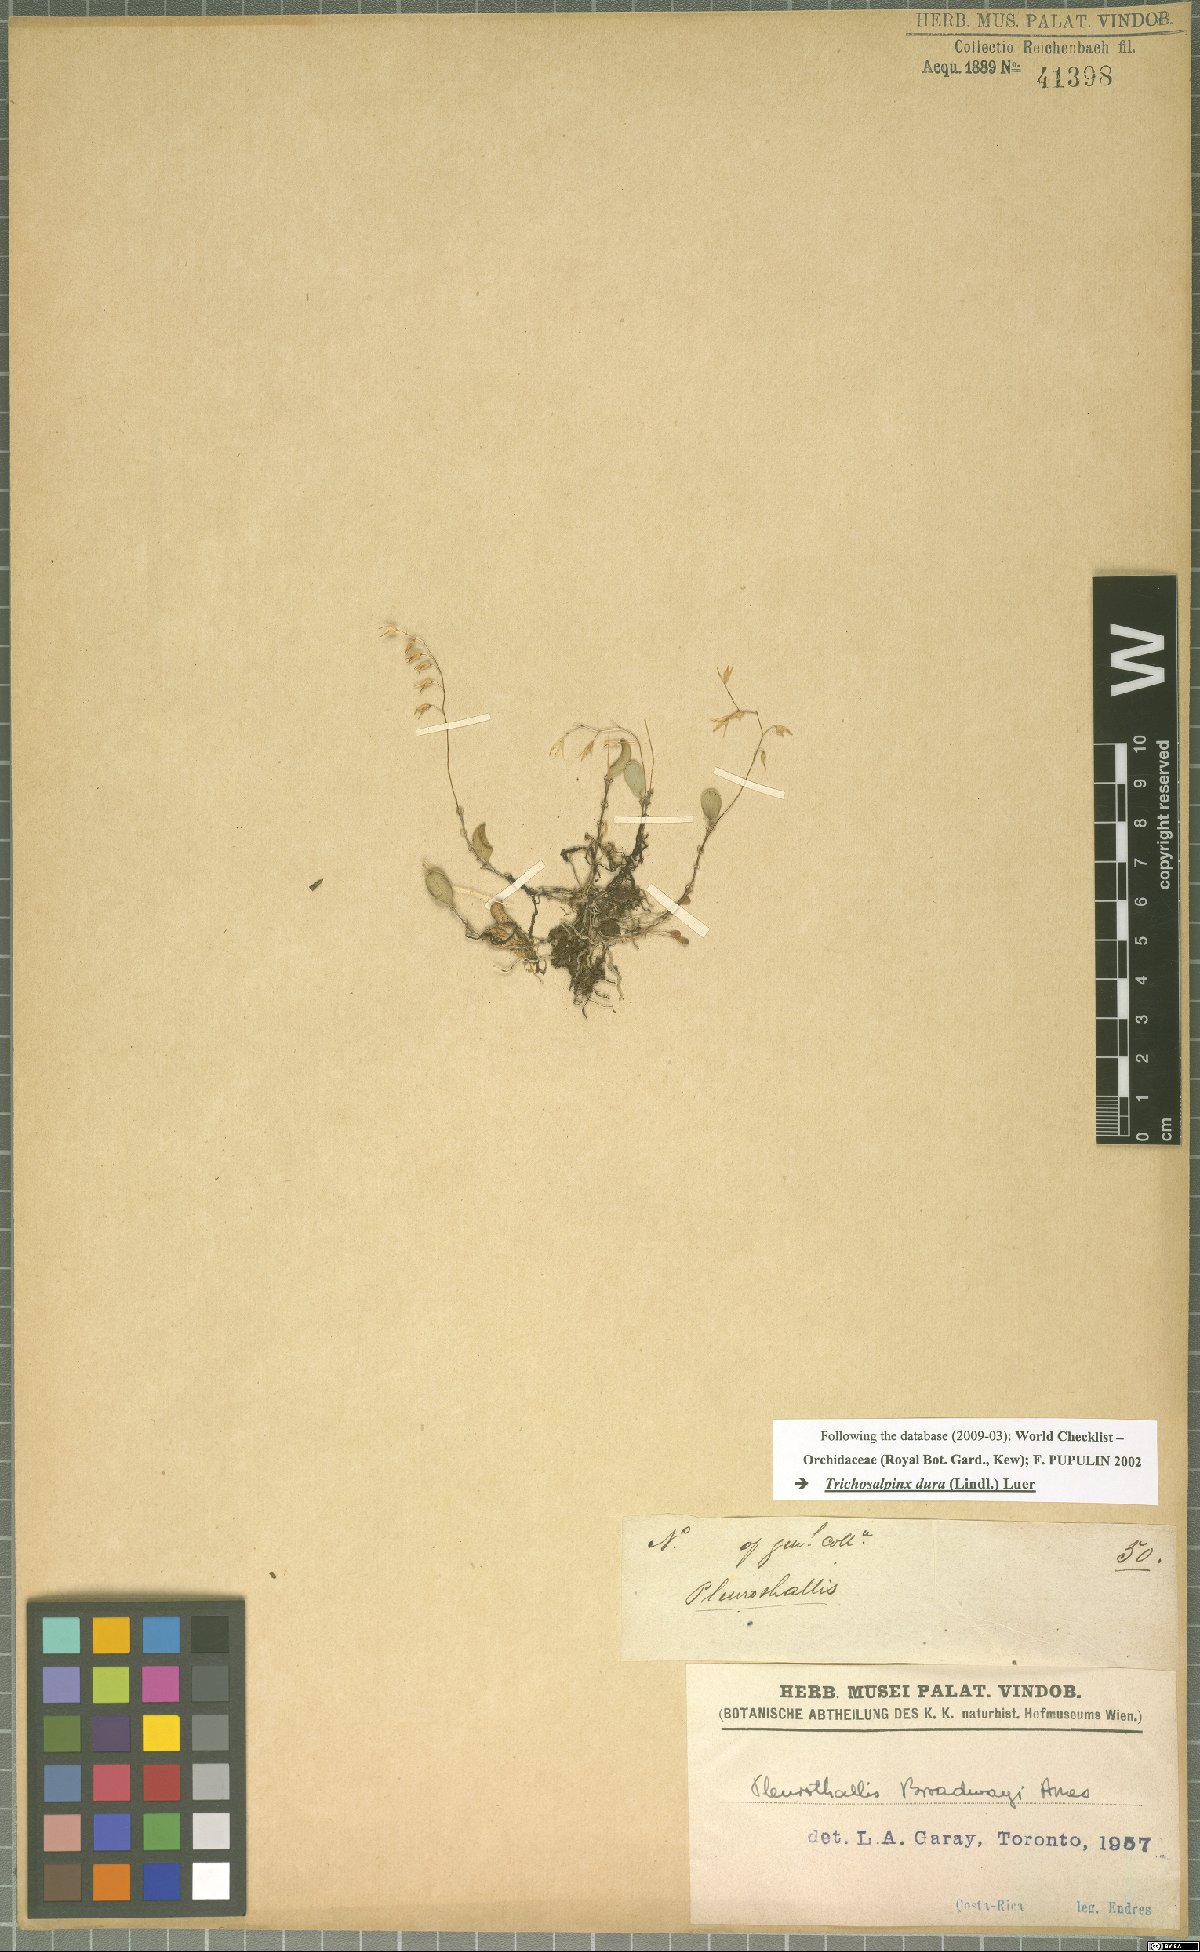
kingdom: Plantae
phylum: Tracheophyta
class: Liliopsida
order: Asparagales
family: Orchidaceae
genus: Trichosalpinx
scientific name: Trichosalpinx dura
